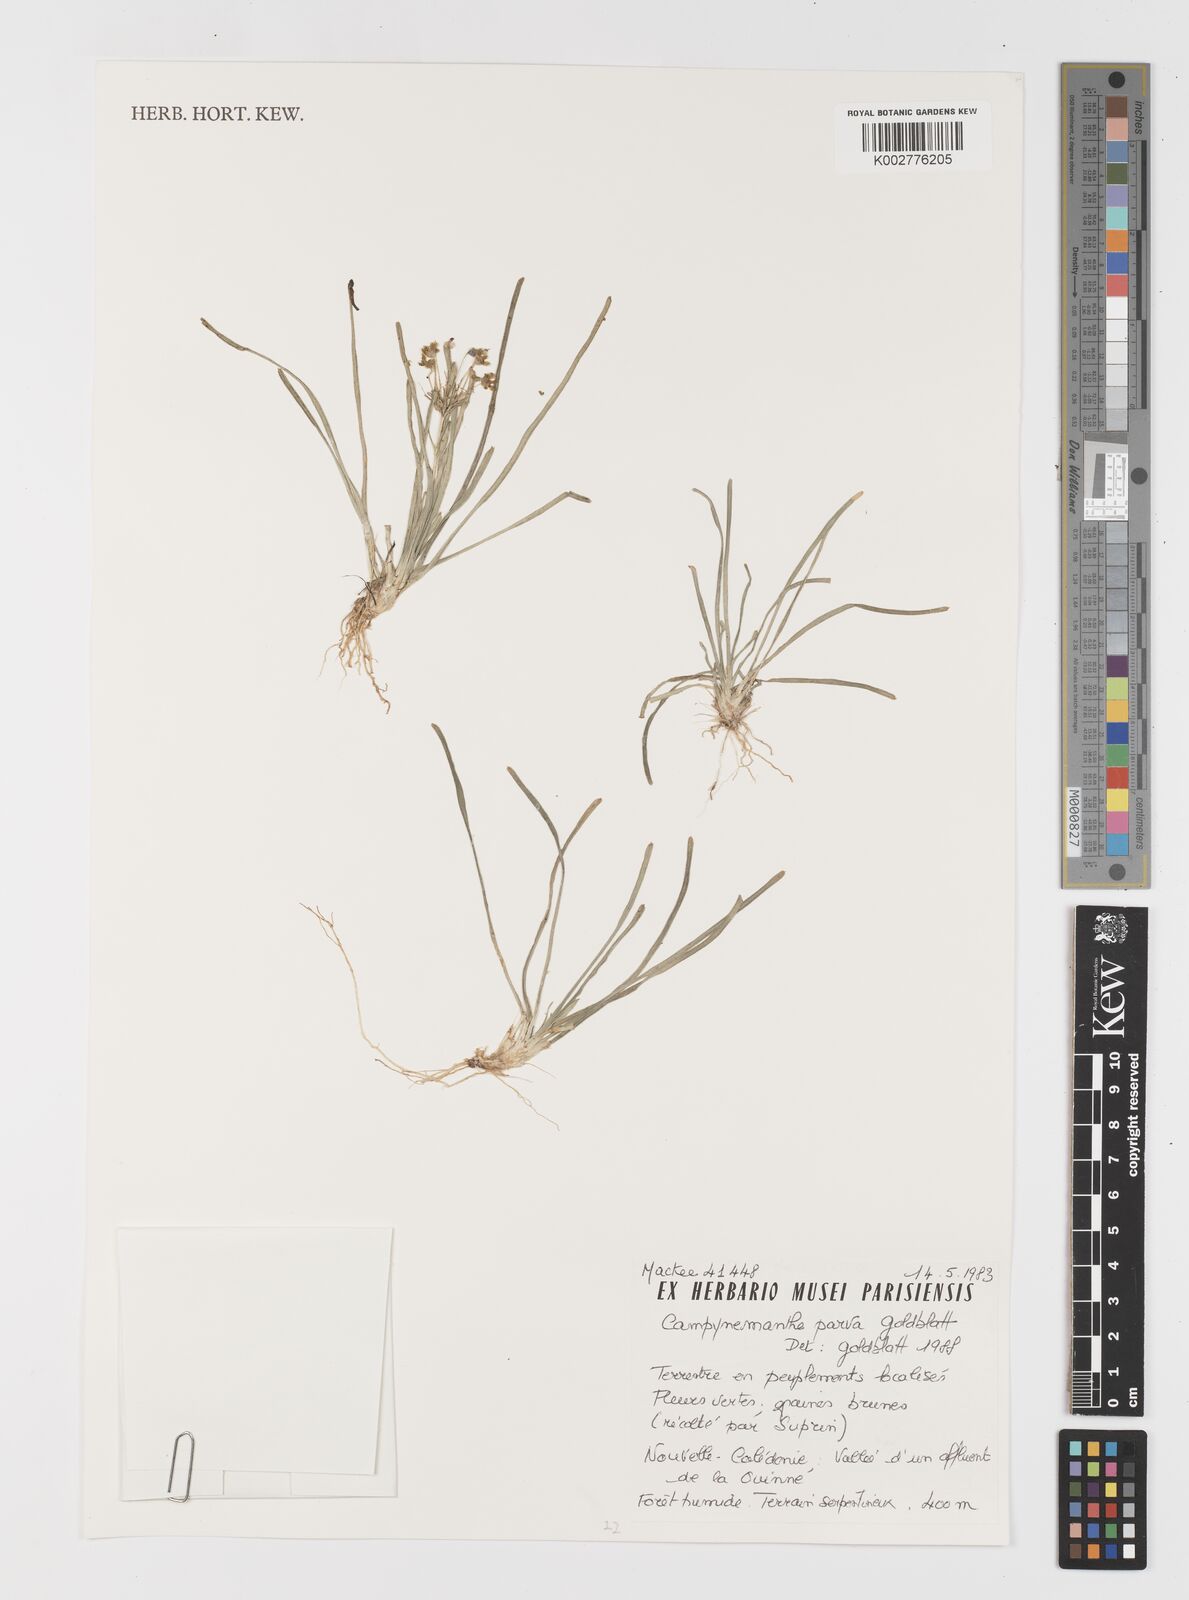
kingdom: Plantae
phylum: Tracheophyta
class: Liliopsida
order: Liliales
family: Campynemataceae
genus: Campynemanthe
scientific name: Campynemanthe parva
